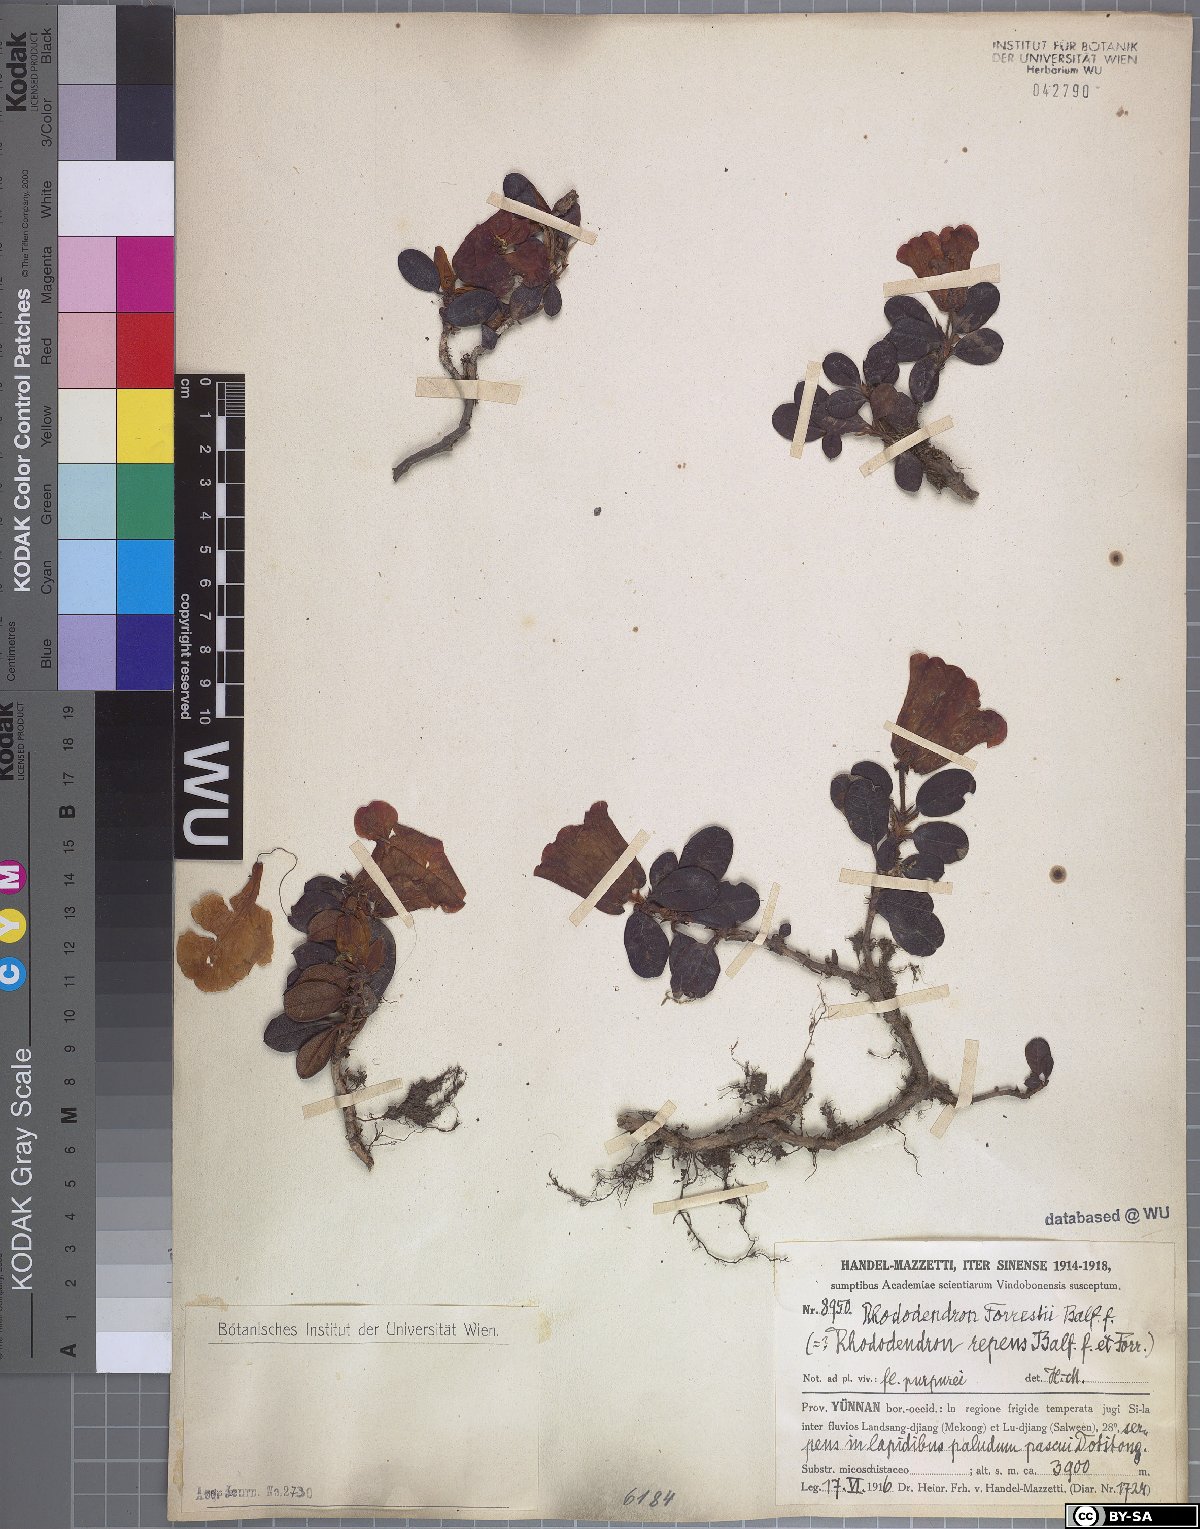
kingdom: Plantae
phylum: Tracheophyta
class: Magnoliopsida
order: Ericales
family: Ericaceae
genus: Rhododendron
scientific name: Rhododendron forrestii
